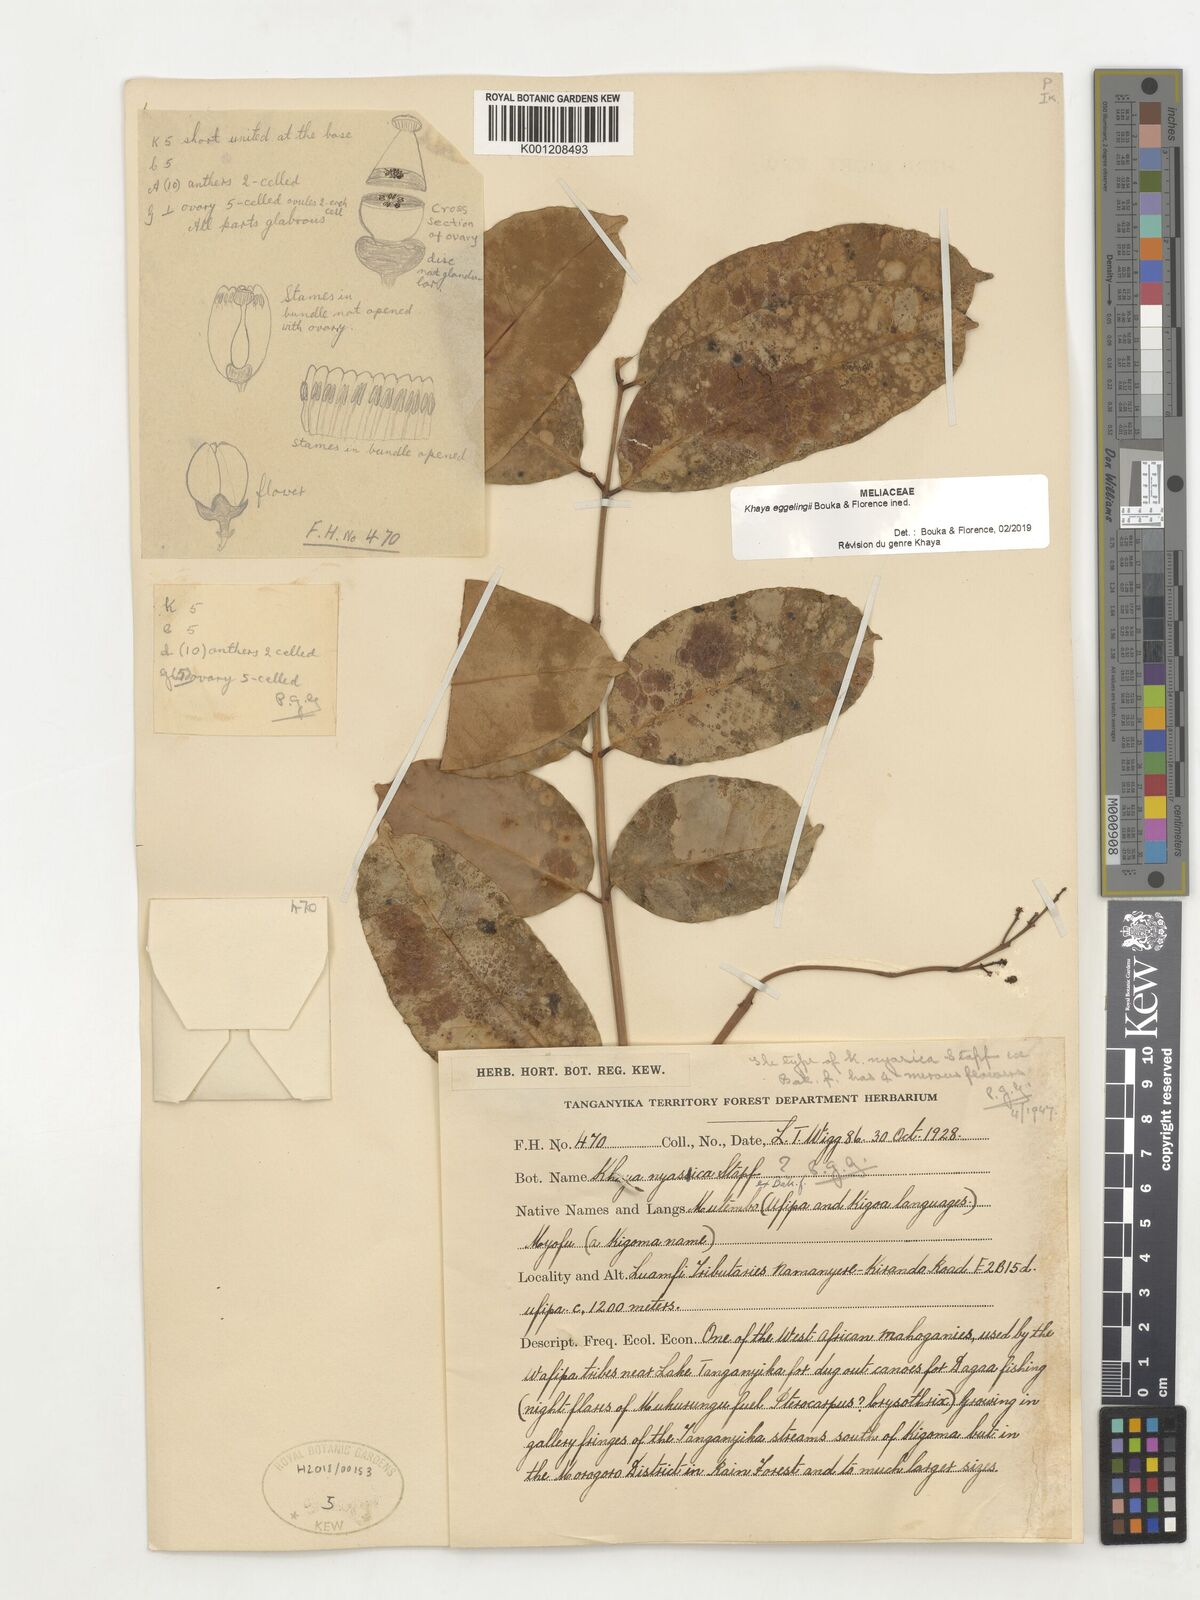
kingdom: Plantae
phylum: Tracheophyta
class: Magnoliopsida
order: Sapindales
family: Meliaceae
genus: Khaya
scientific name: Khaya
